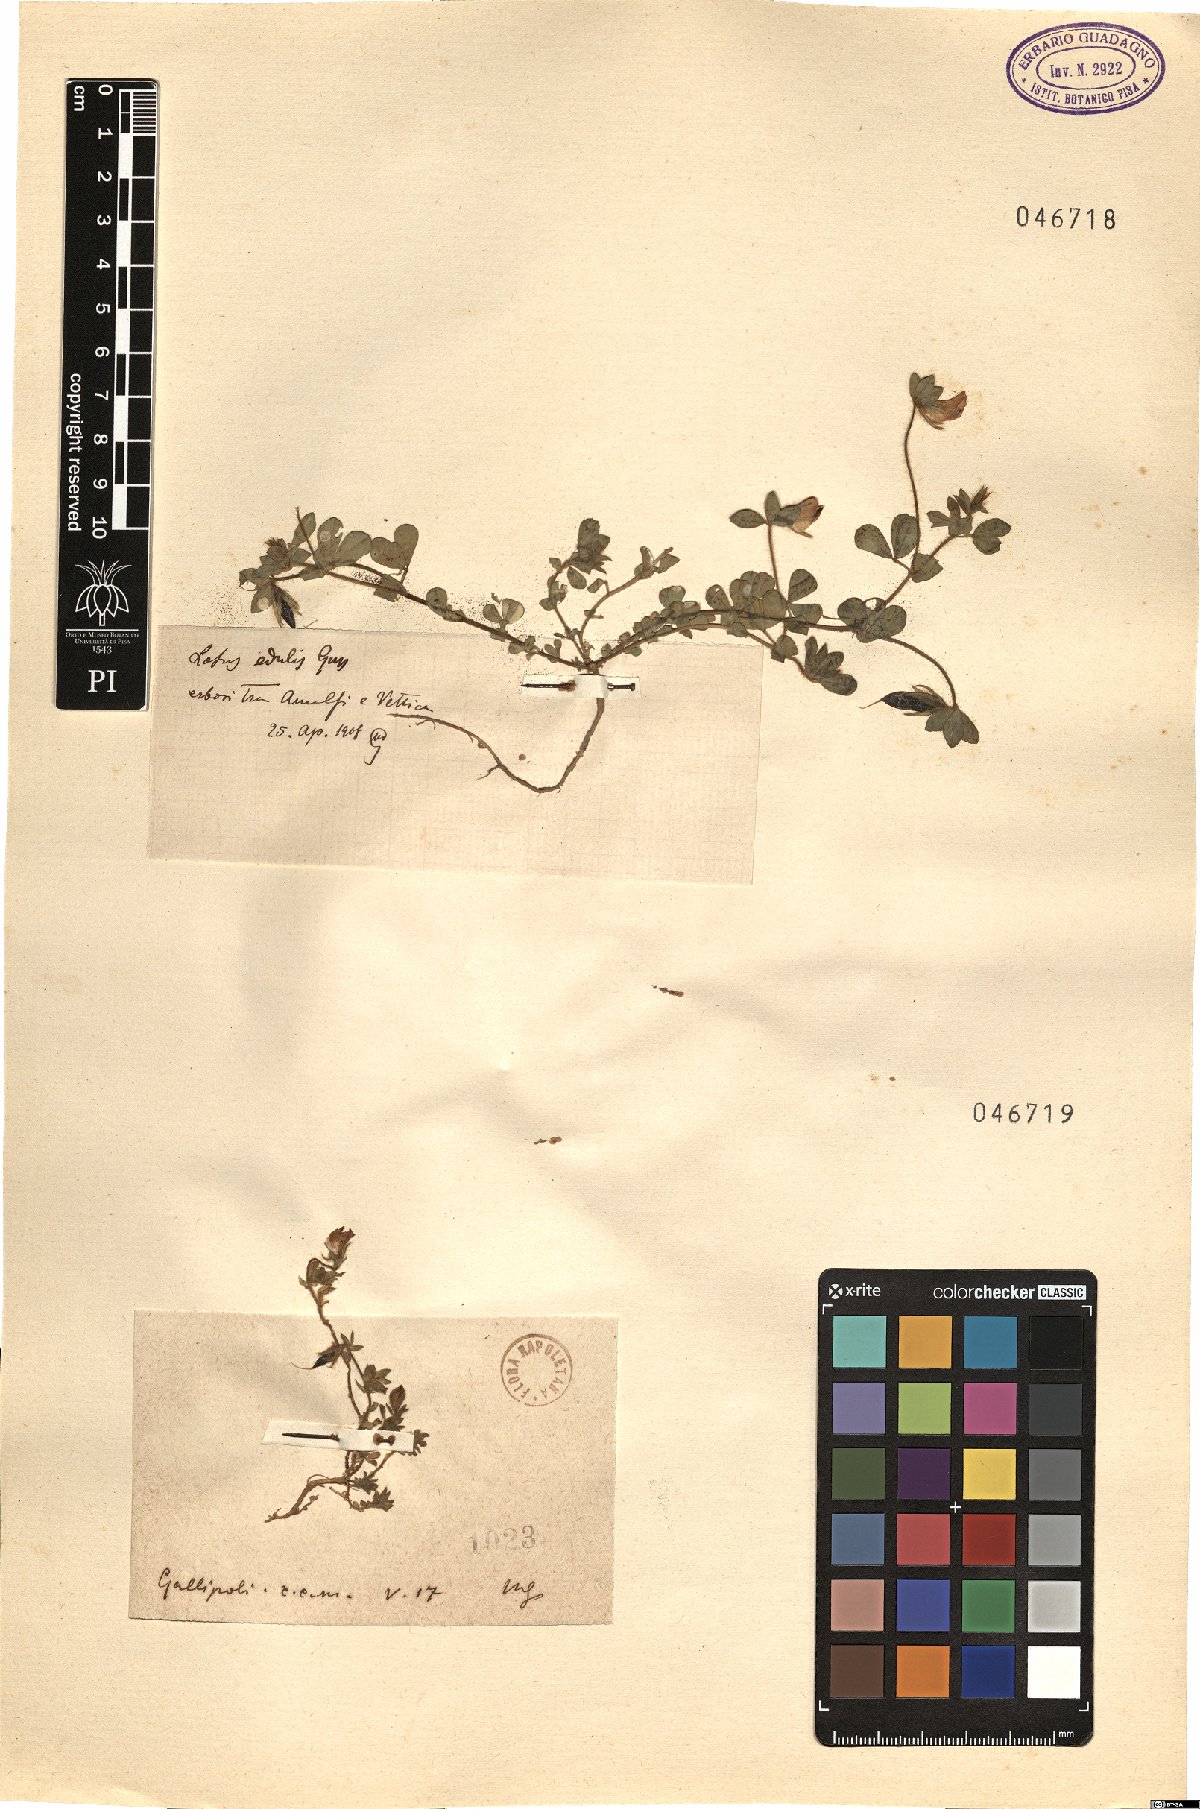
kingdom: Plantae
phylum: Tracheophyta
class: Magnoliopsida
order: Fabales
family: Fabaceae
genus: Lotus
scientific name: Lotus
